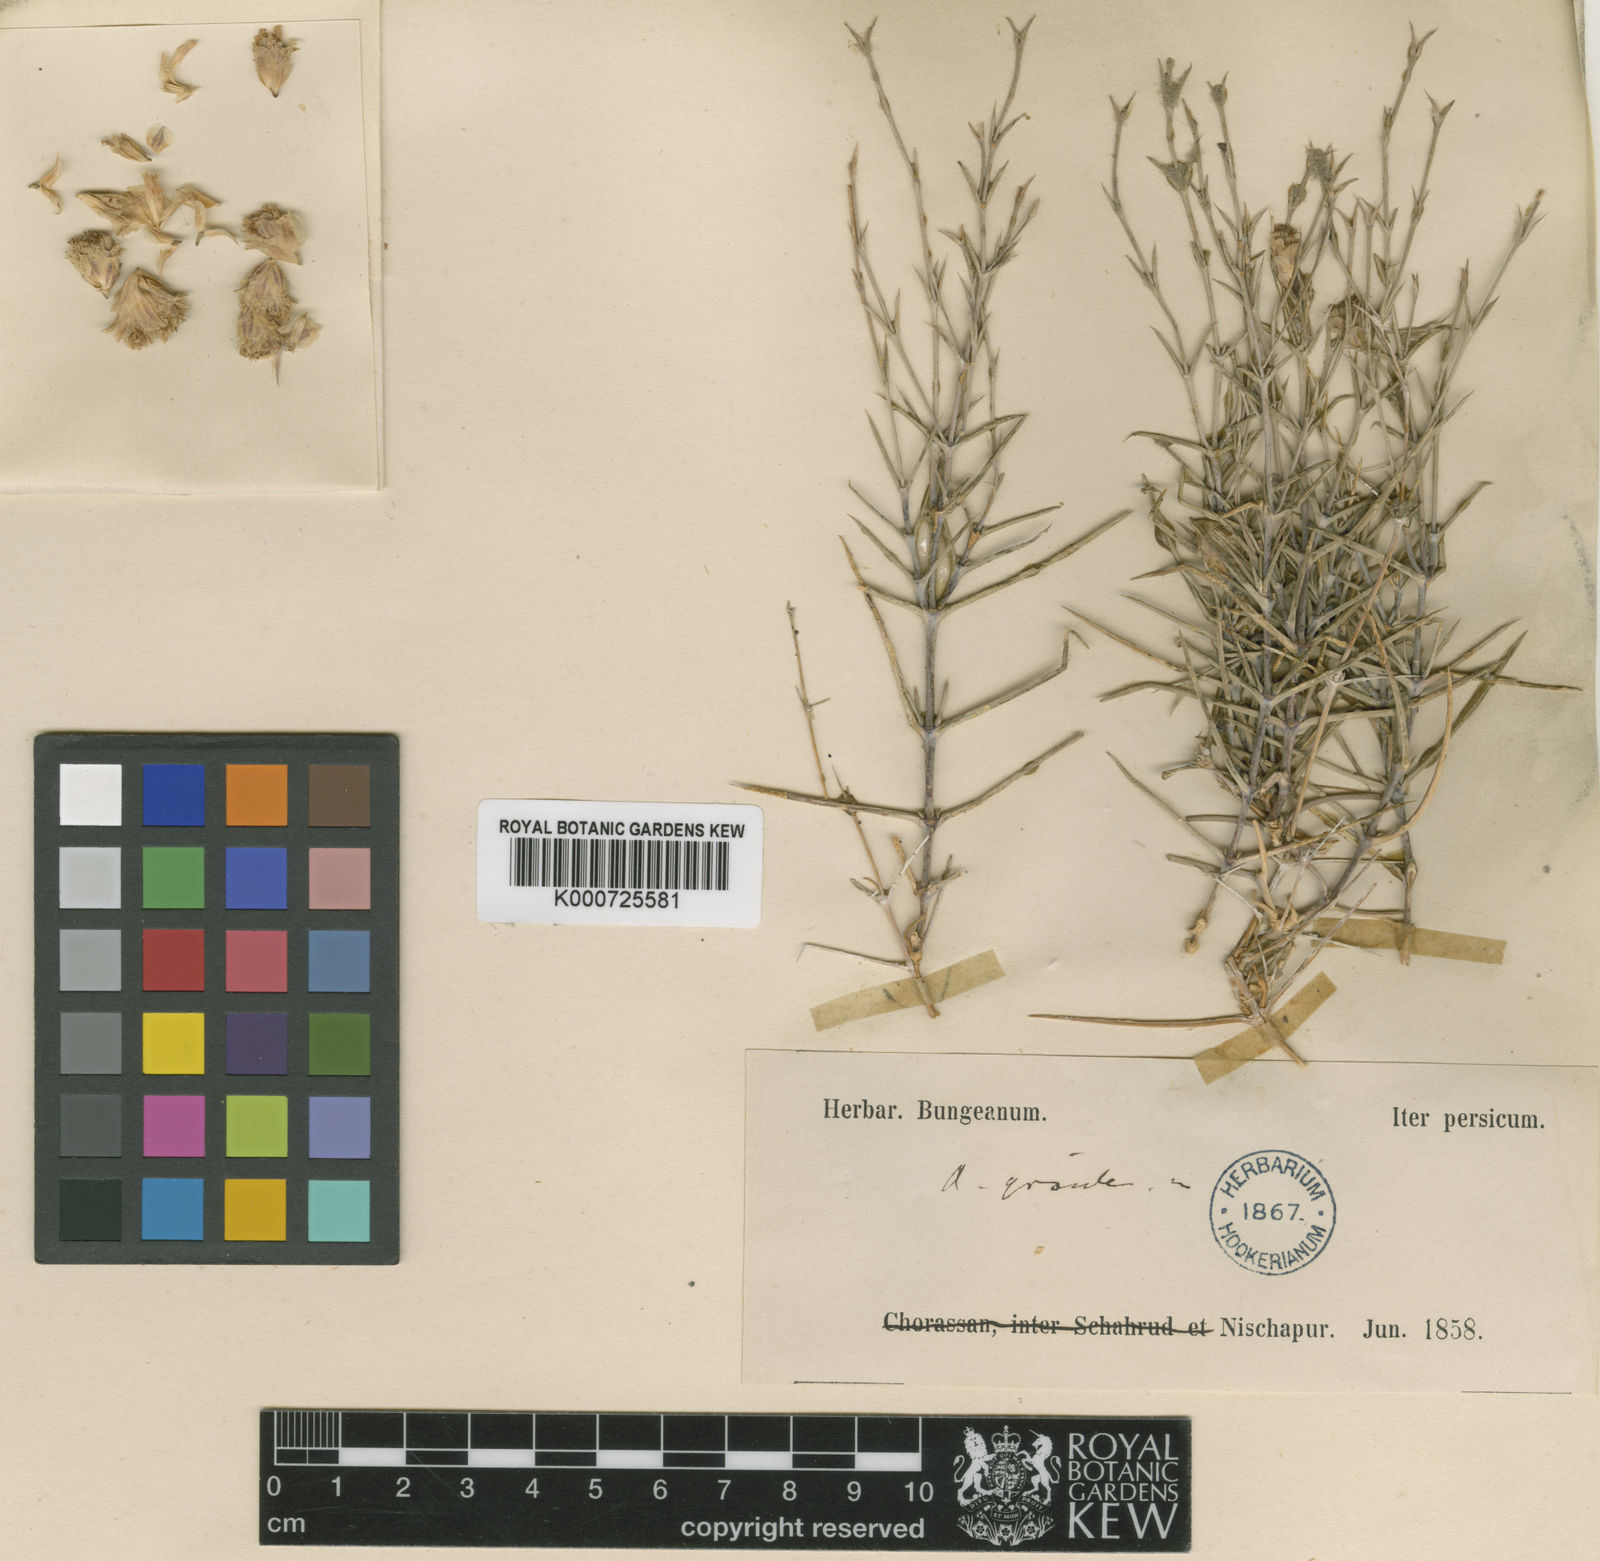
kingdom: Plantae
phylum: Tracheophyta
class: Magnoliopsida
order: Caryophyllales
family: Caryophyllaceae
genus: Acanthophyllum
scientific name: Acanthophyllum gracile
